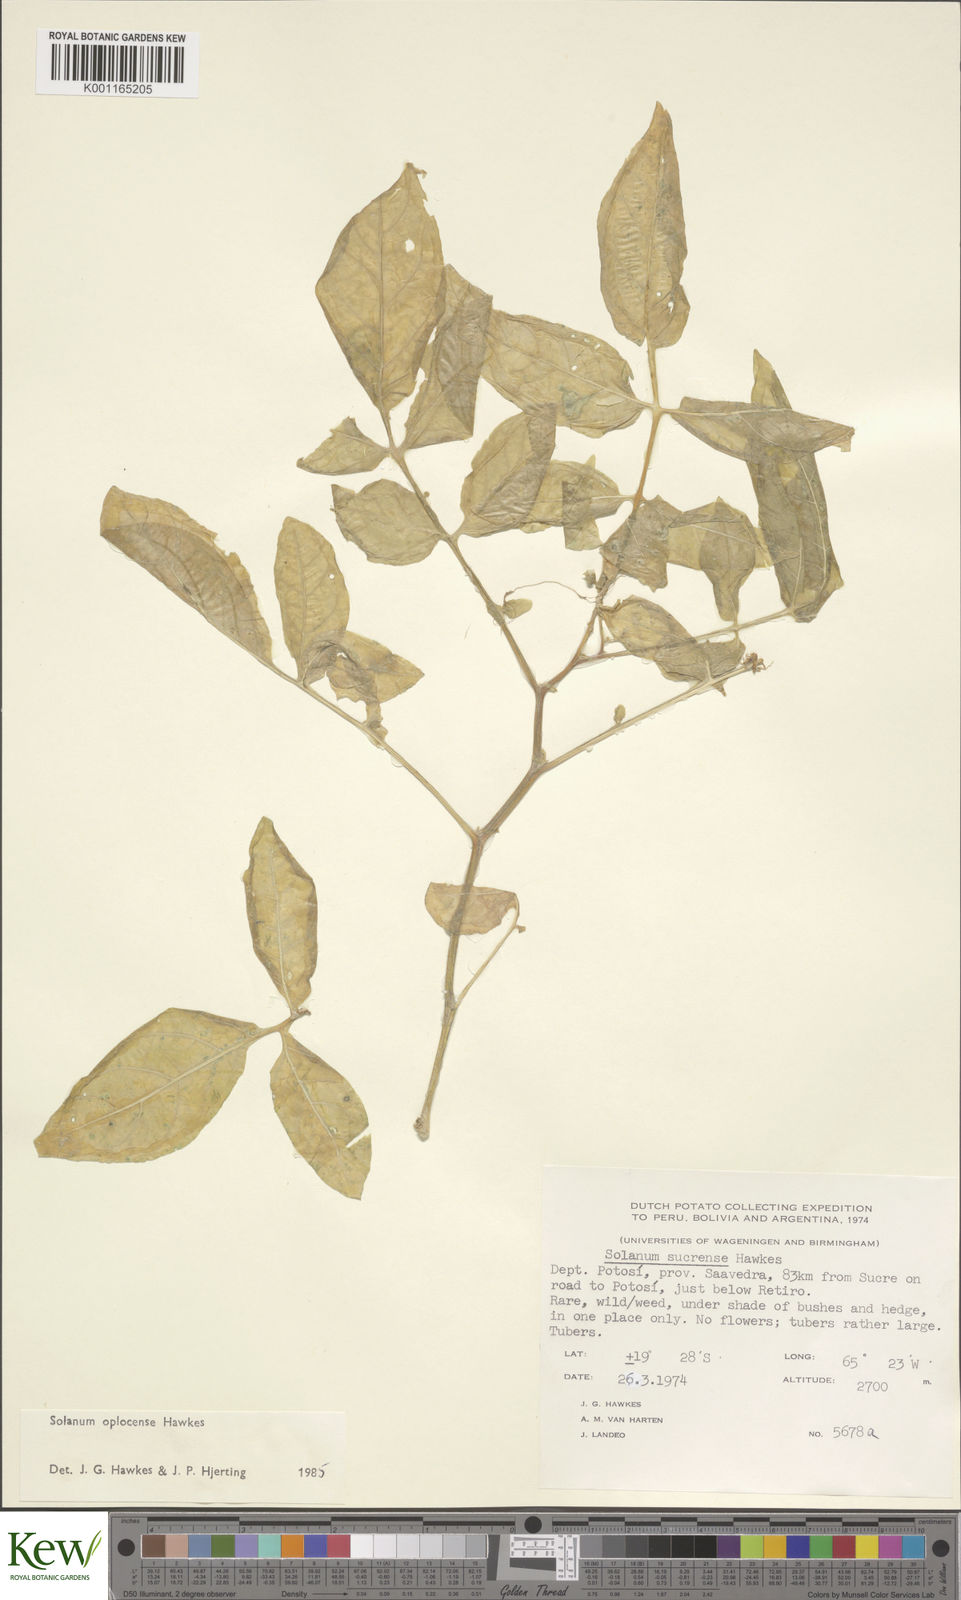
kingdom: Plantae
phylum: Tracheophyta
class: Magnoliopsida
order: Solanales
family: Solanaceae
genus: Solanum
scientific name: Solanum brevicaule
